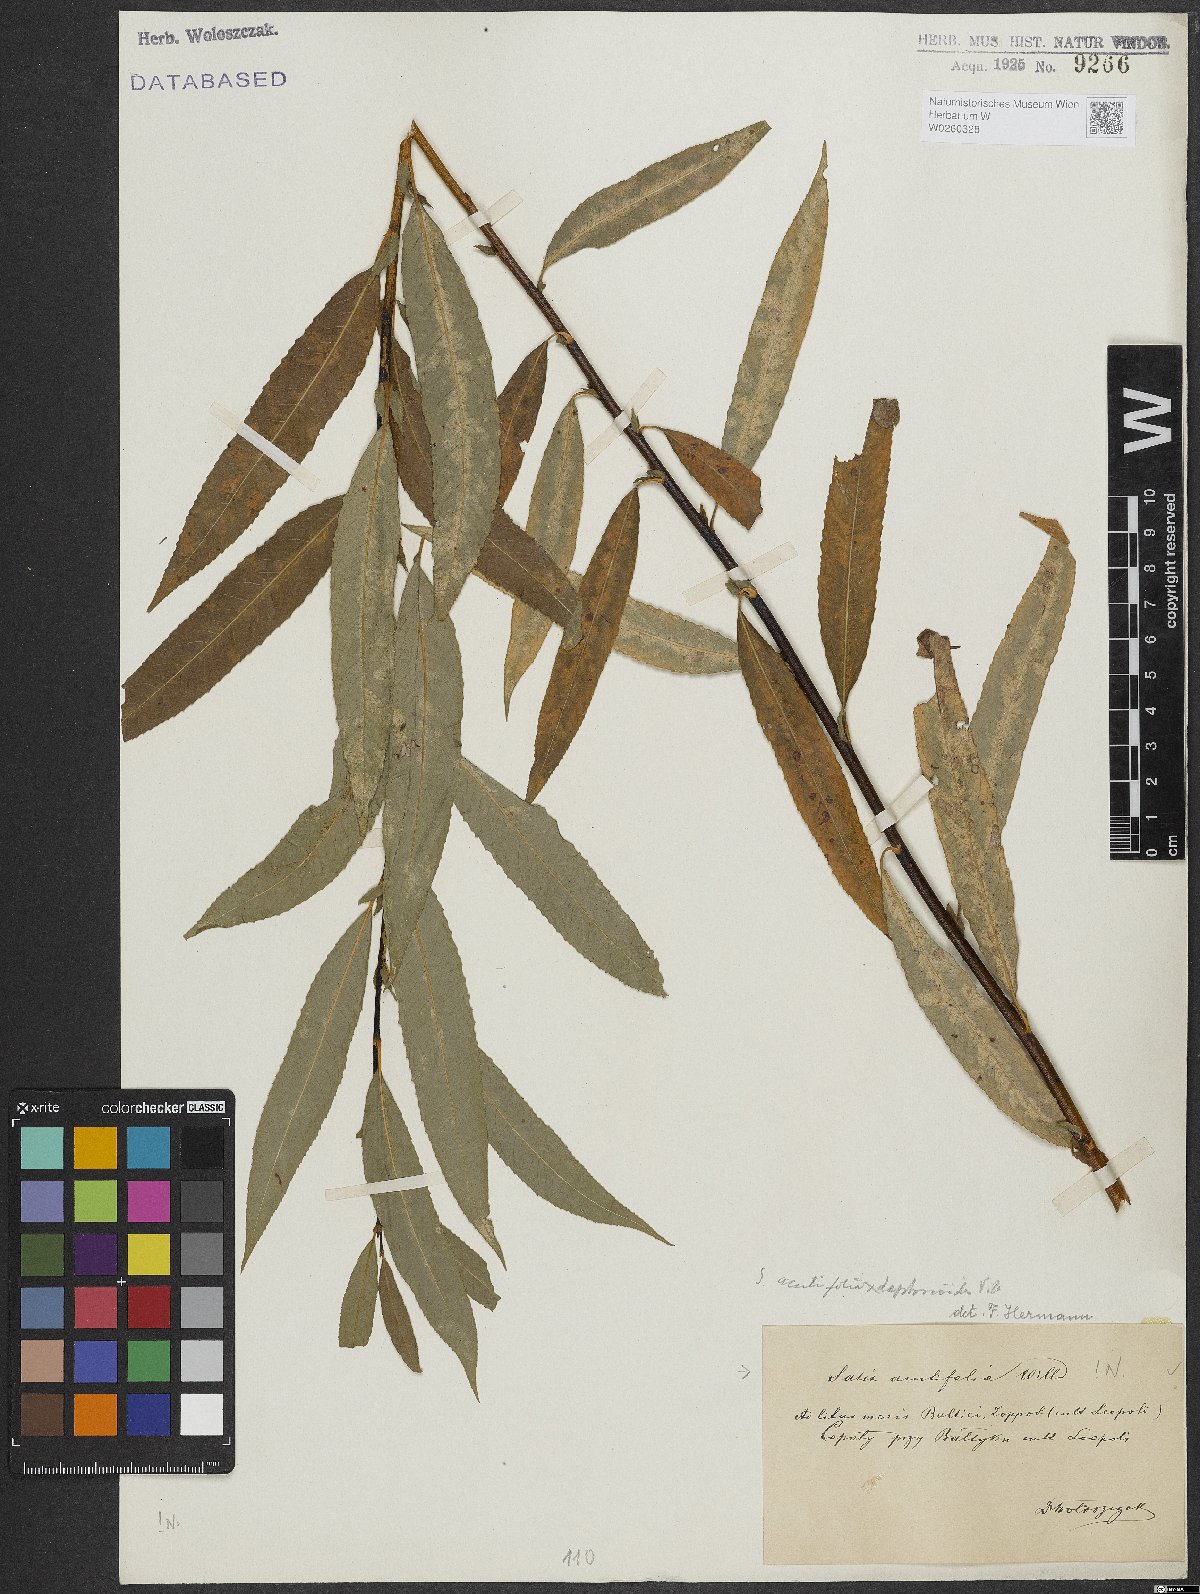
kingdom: Plantae
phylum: Tracheophyta
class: Magnoliopsida
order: Malpighiales
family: Salicaceae
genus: Salix
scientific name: Salix acutifolia
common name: Siberian violet-willow
